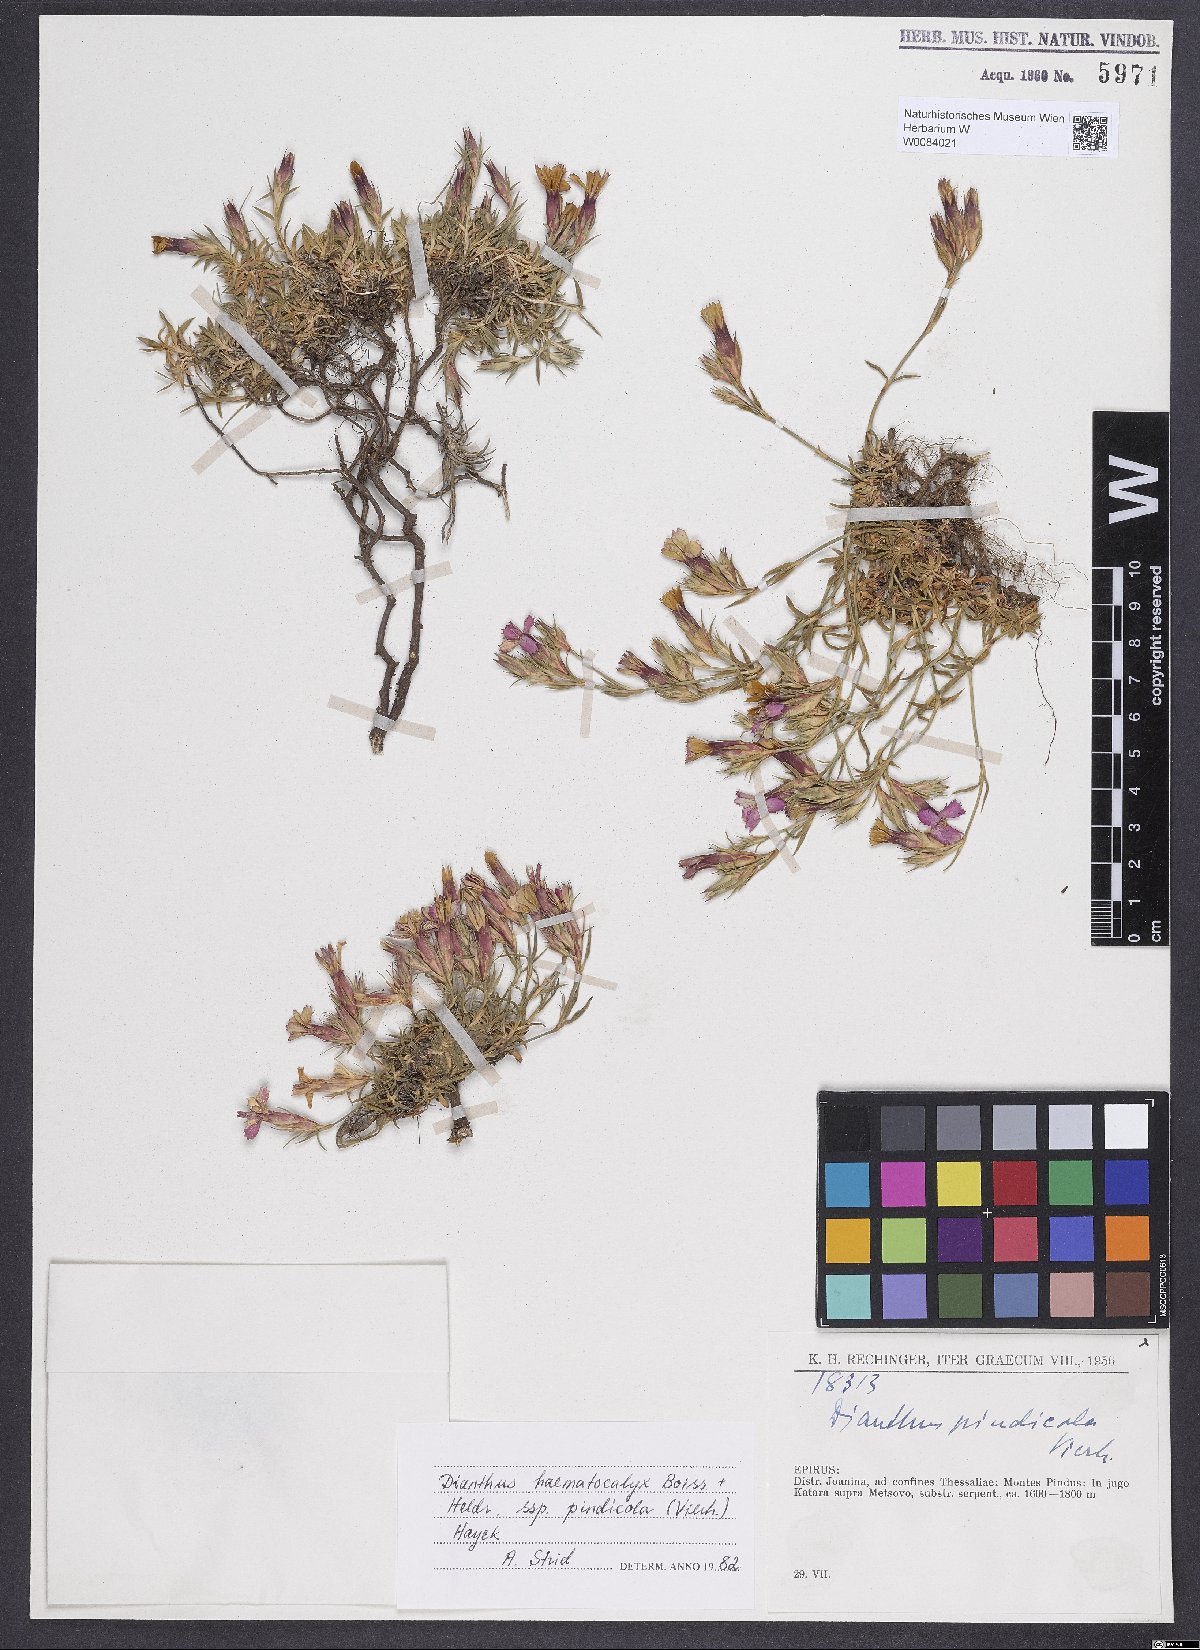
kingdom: Plantae
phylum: Tracheophyta
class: Magnoliopsida
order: Caryophyllales
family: Caryophyllaceae
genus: Dianthus
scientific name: Dianthus haematocalyx
